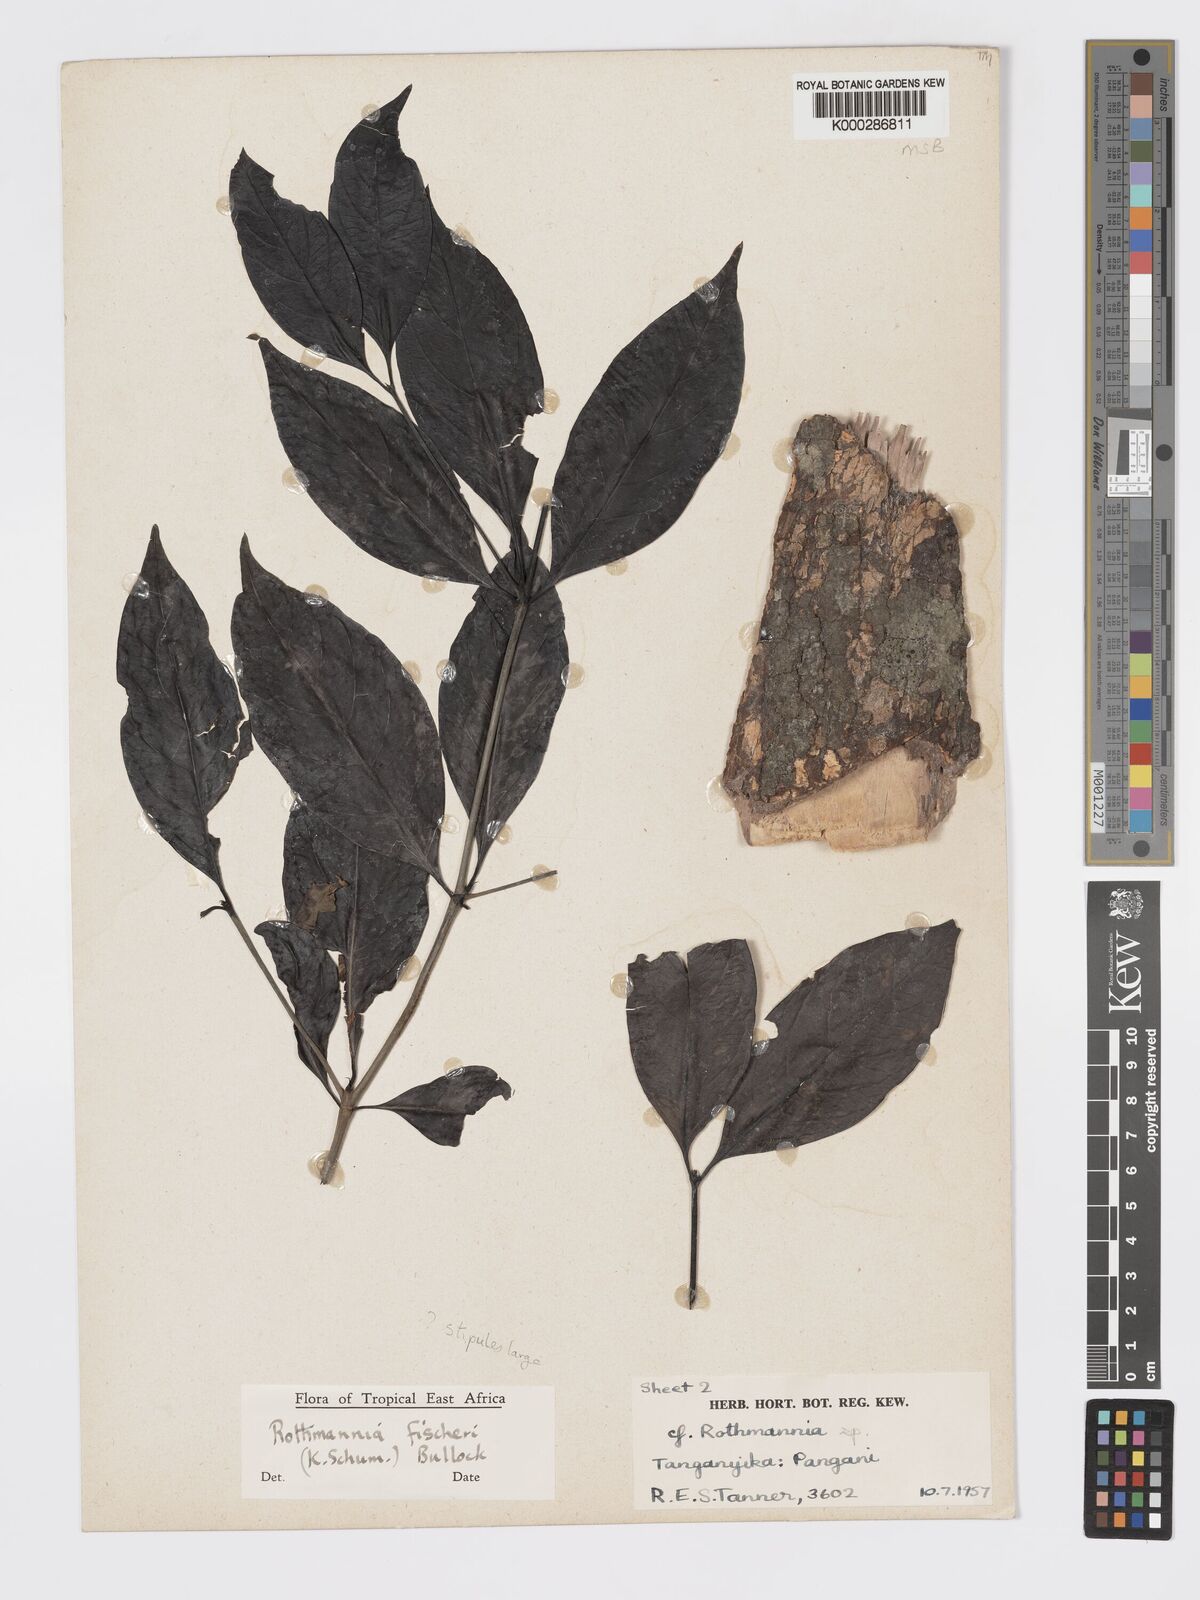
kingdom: Plantae
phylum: Tracheophyta
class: Magnoliopsida
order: Gentianales
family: Rubiaceae
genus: Rothmannia
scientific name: Rothmannia ravae
